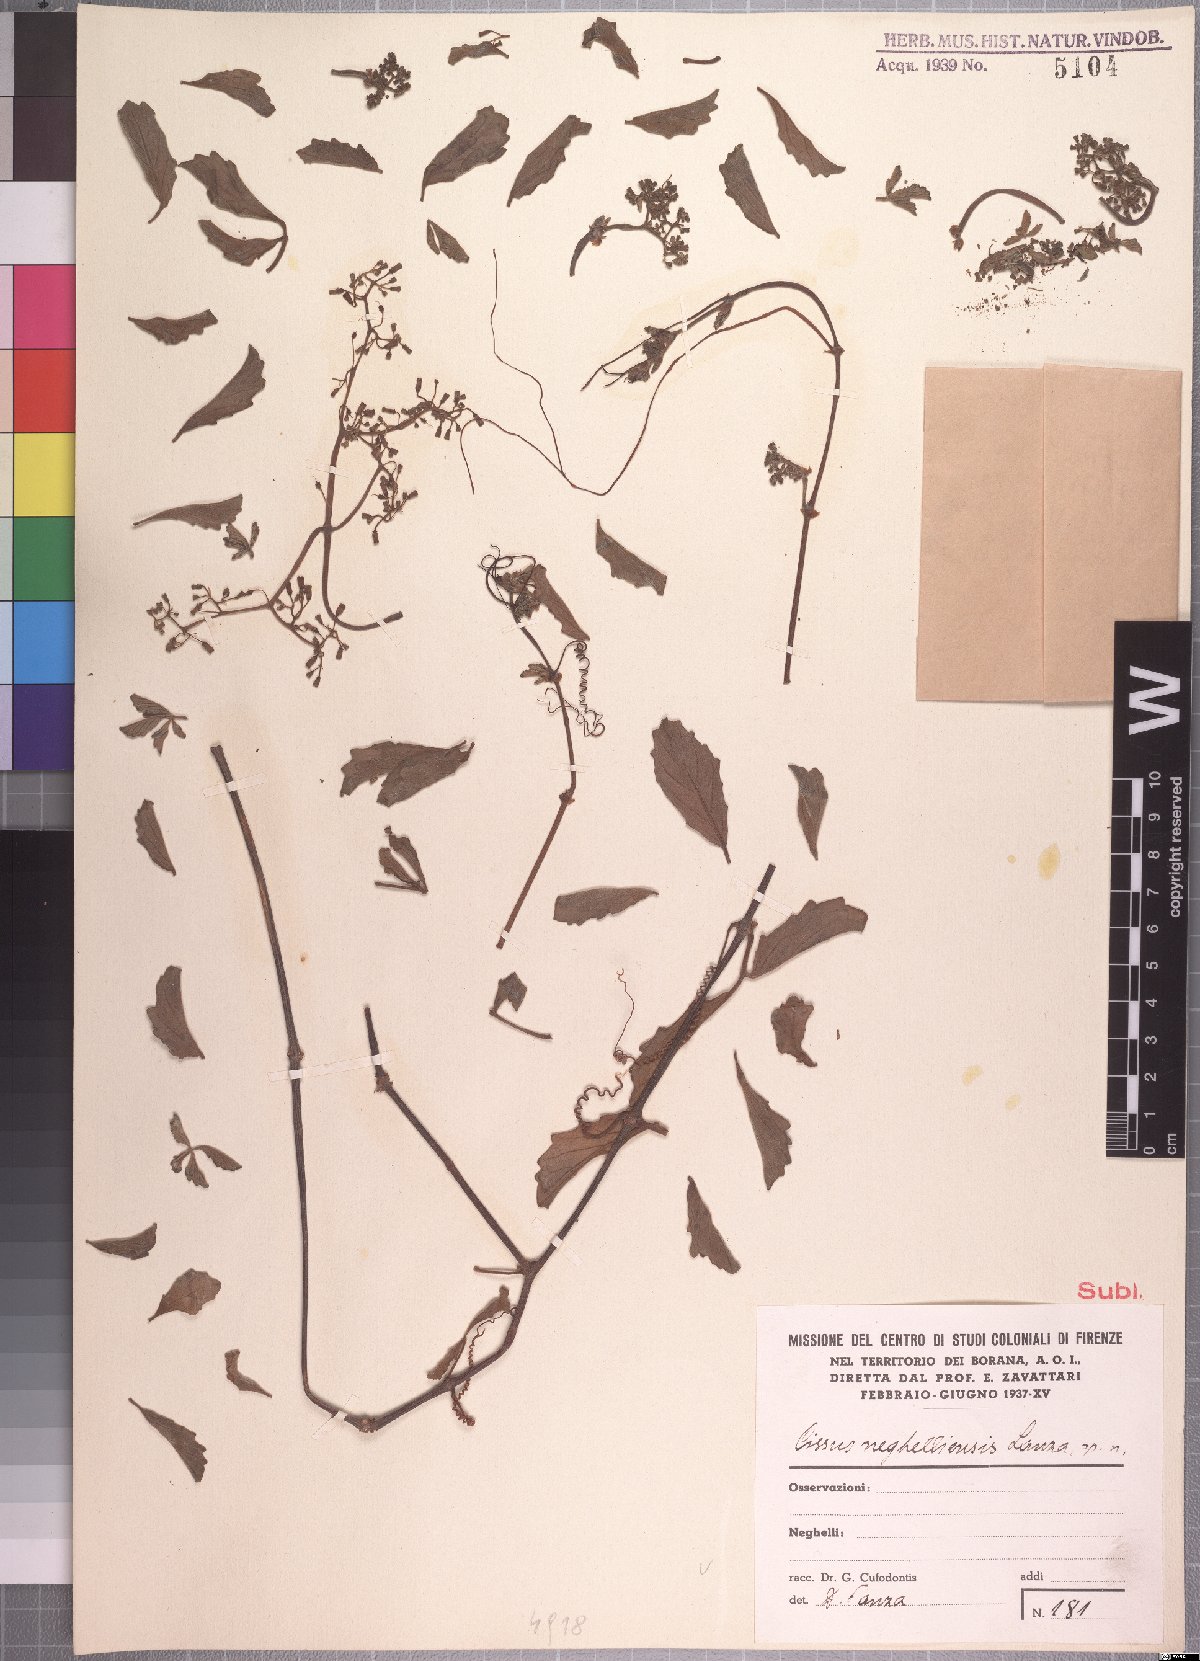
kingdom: Plantae
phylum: Tracheophyta
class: Magnoliopsida
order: Vitales
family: Vitaceae
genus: Cyphostemma
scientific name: Cyphostemma cyphopetalum
